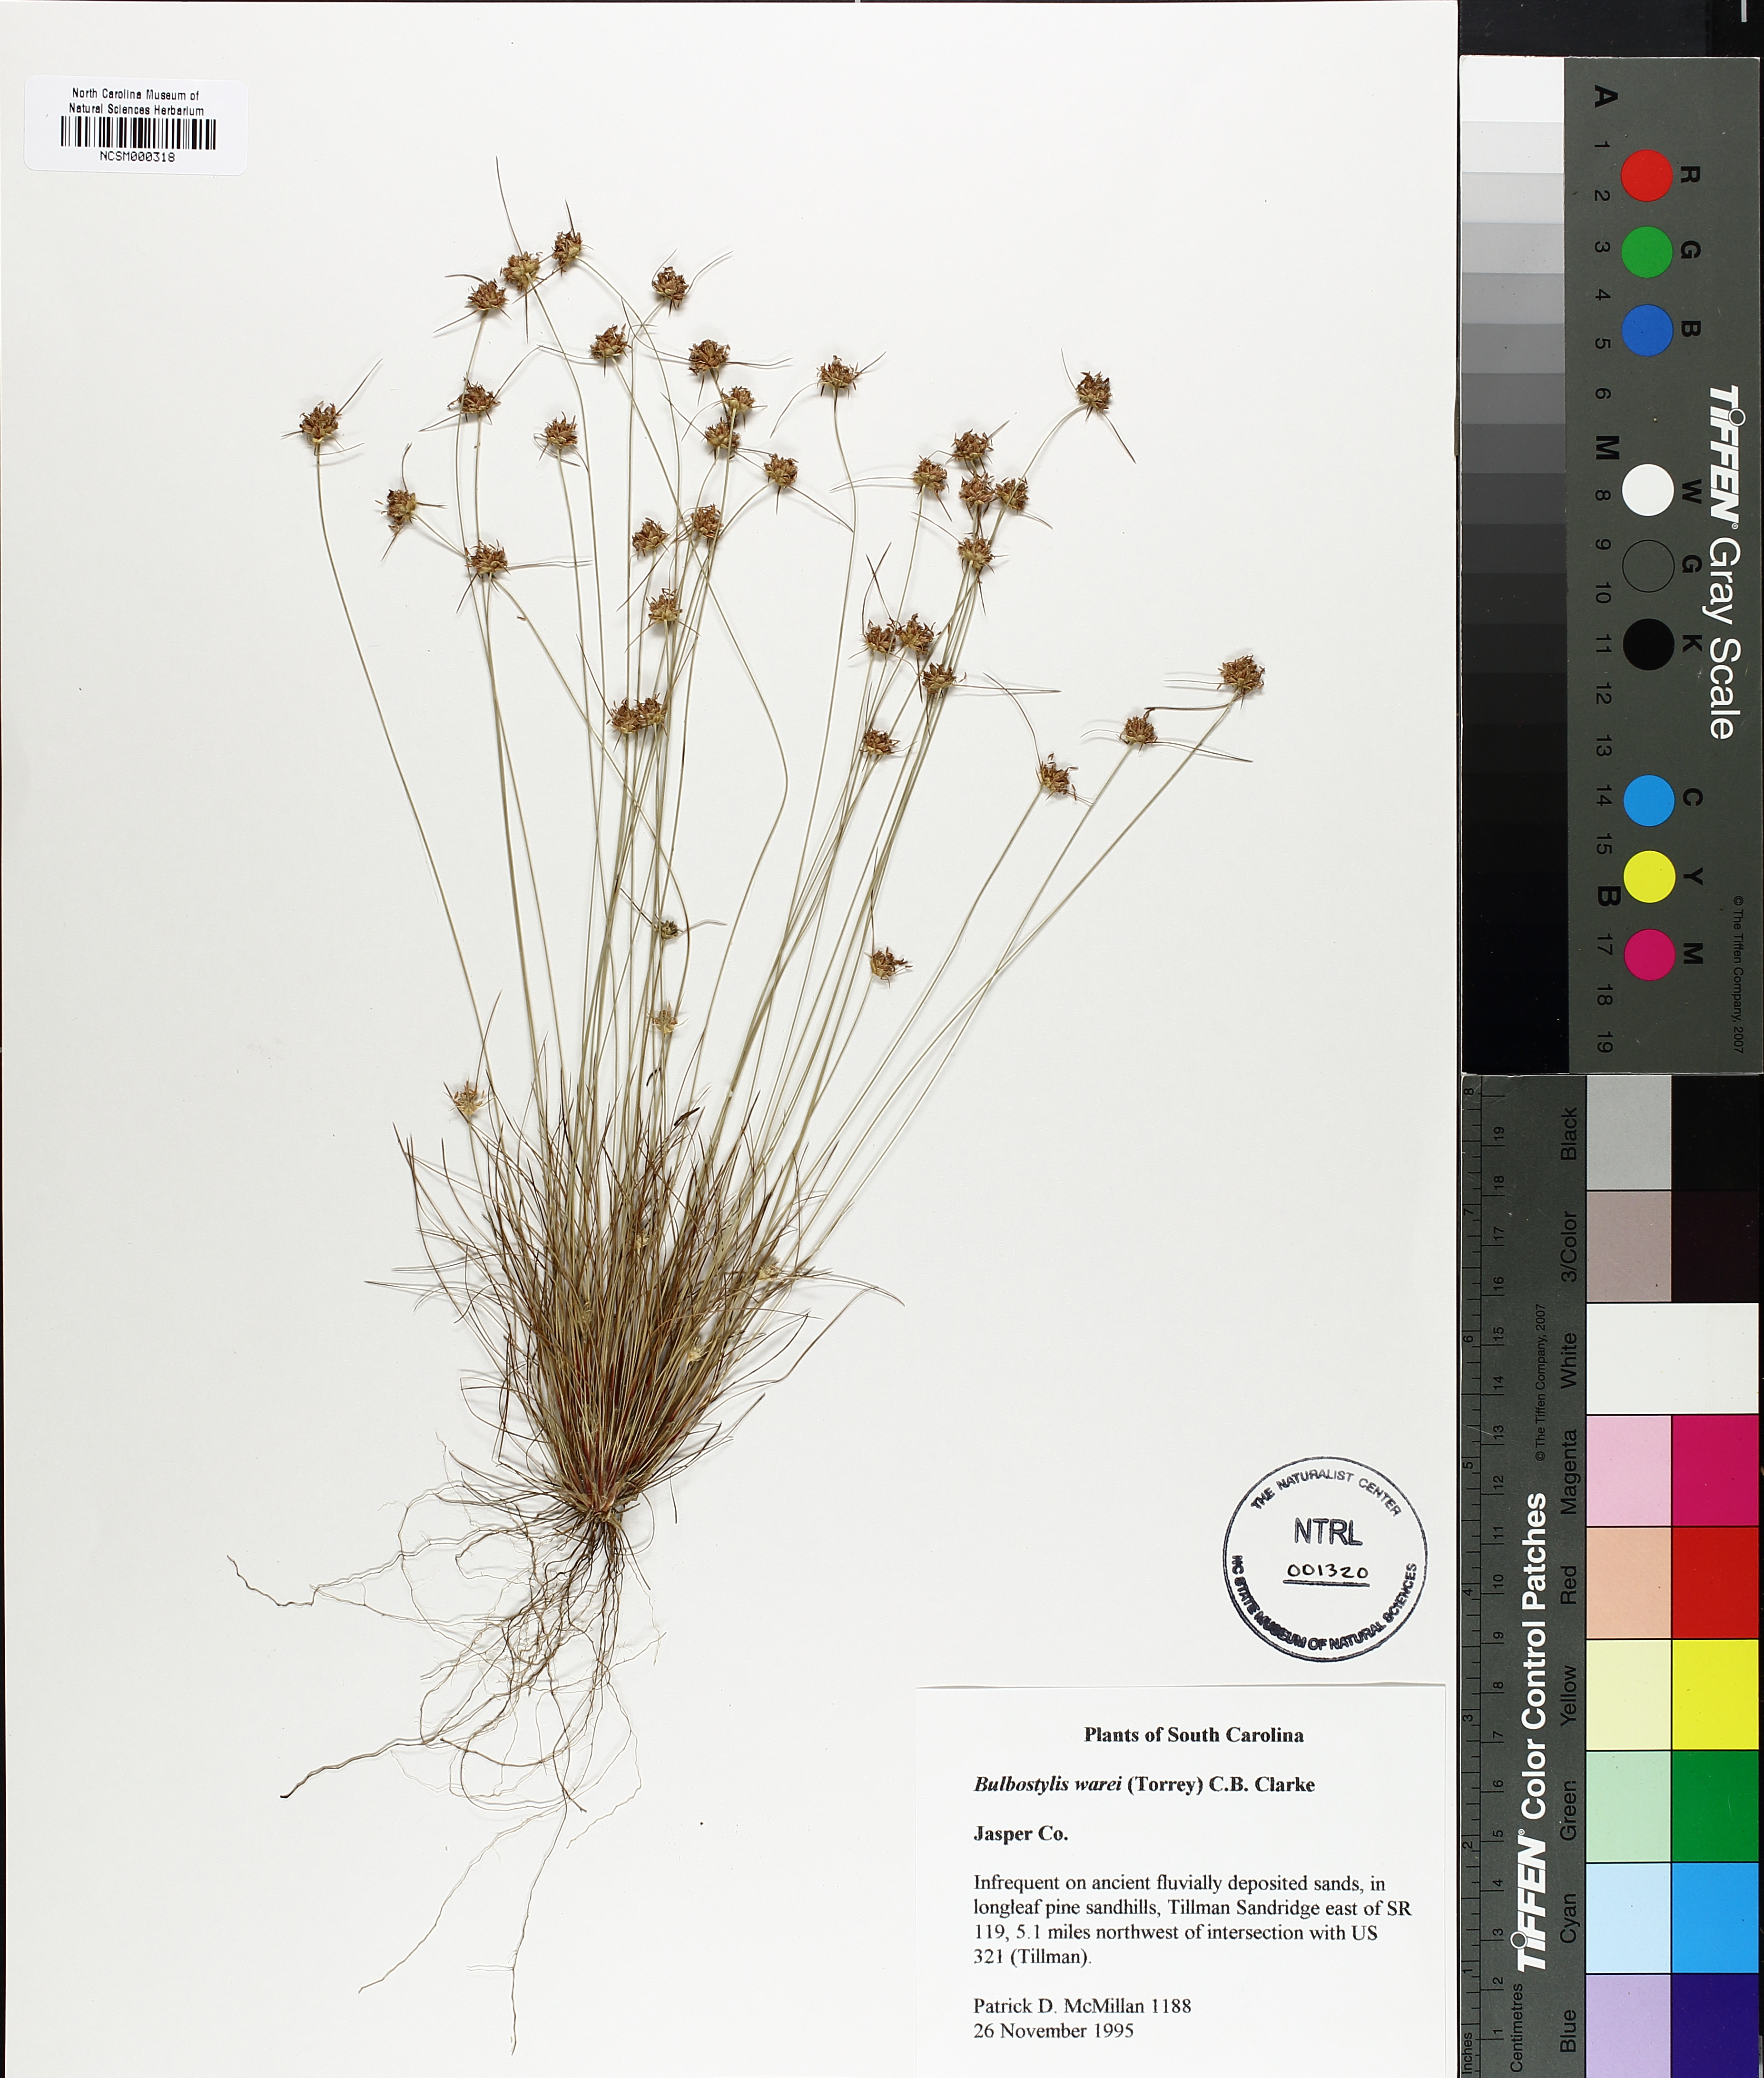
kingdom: Plantae
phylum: Tracheophyta
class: Liliopsida
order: Poales
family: Cyperaceae
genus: Bulbostylis
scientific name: Bulbostylis warei
